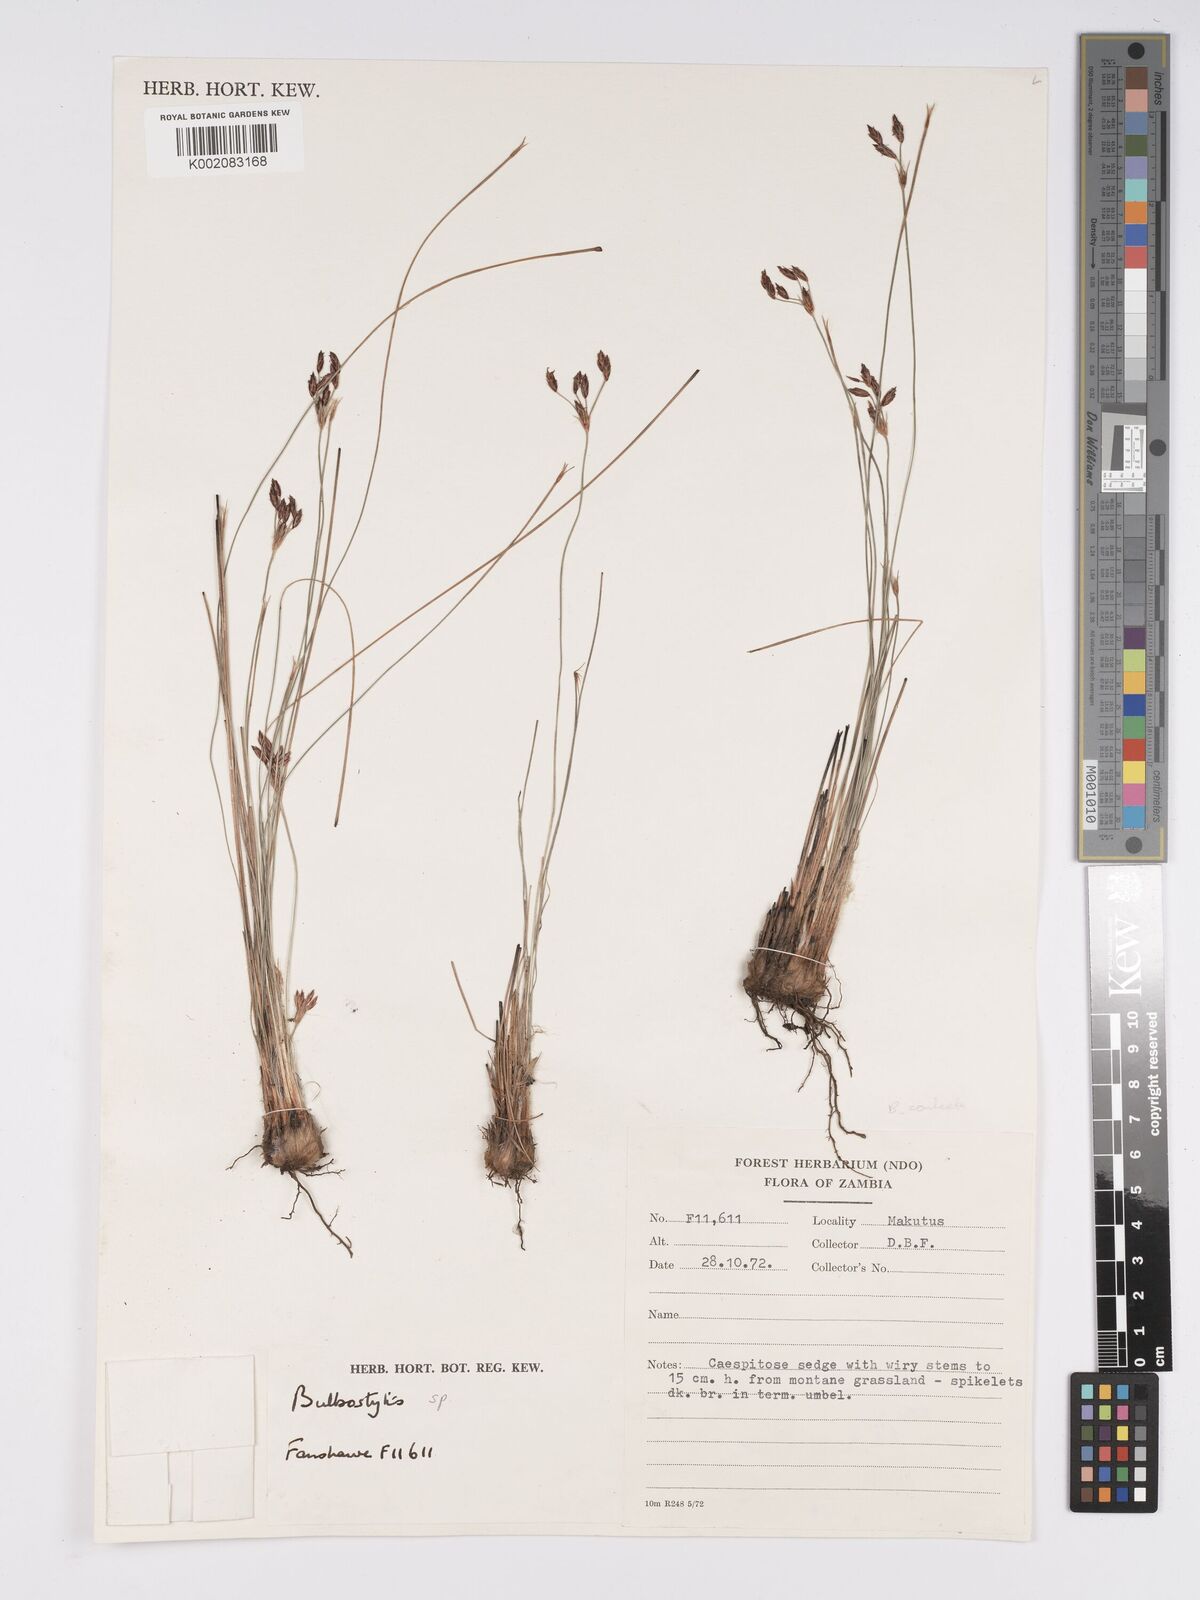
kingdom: Plantae
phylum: Tracheophyta
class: Liliopsida
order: Poales
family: Cyperaceae
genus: Bulbostylis
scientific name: Bulbostylis contexta
